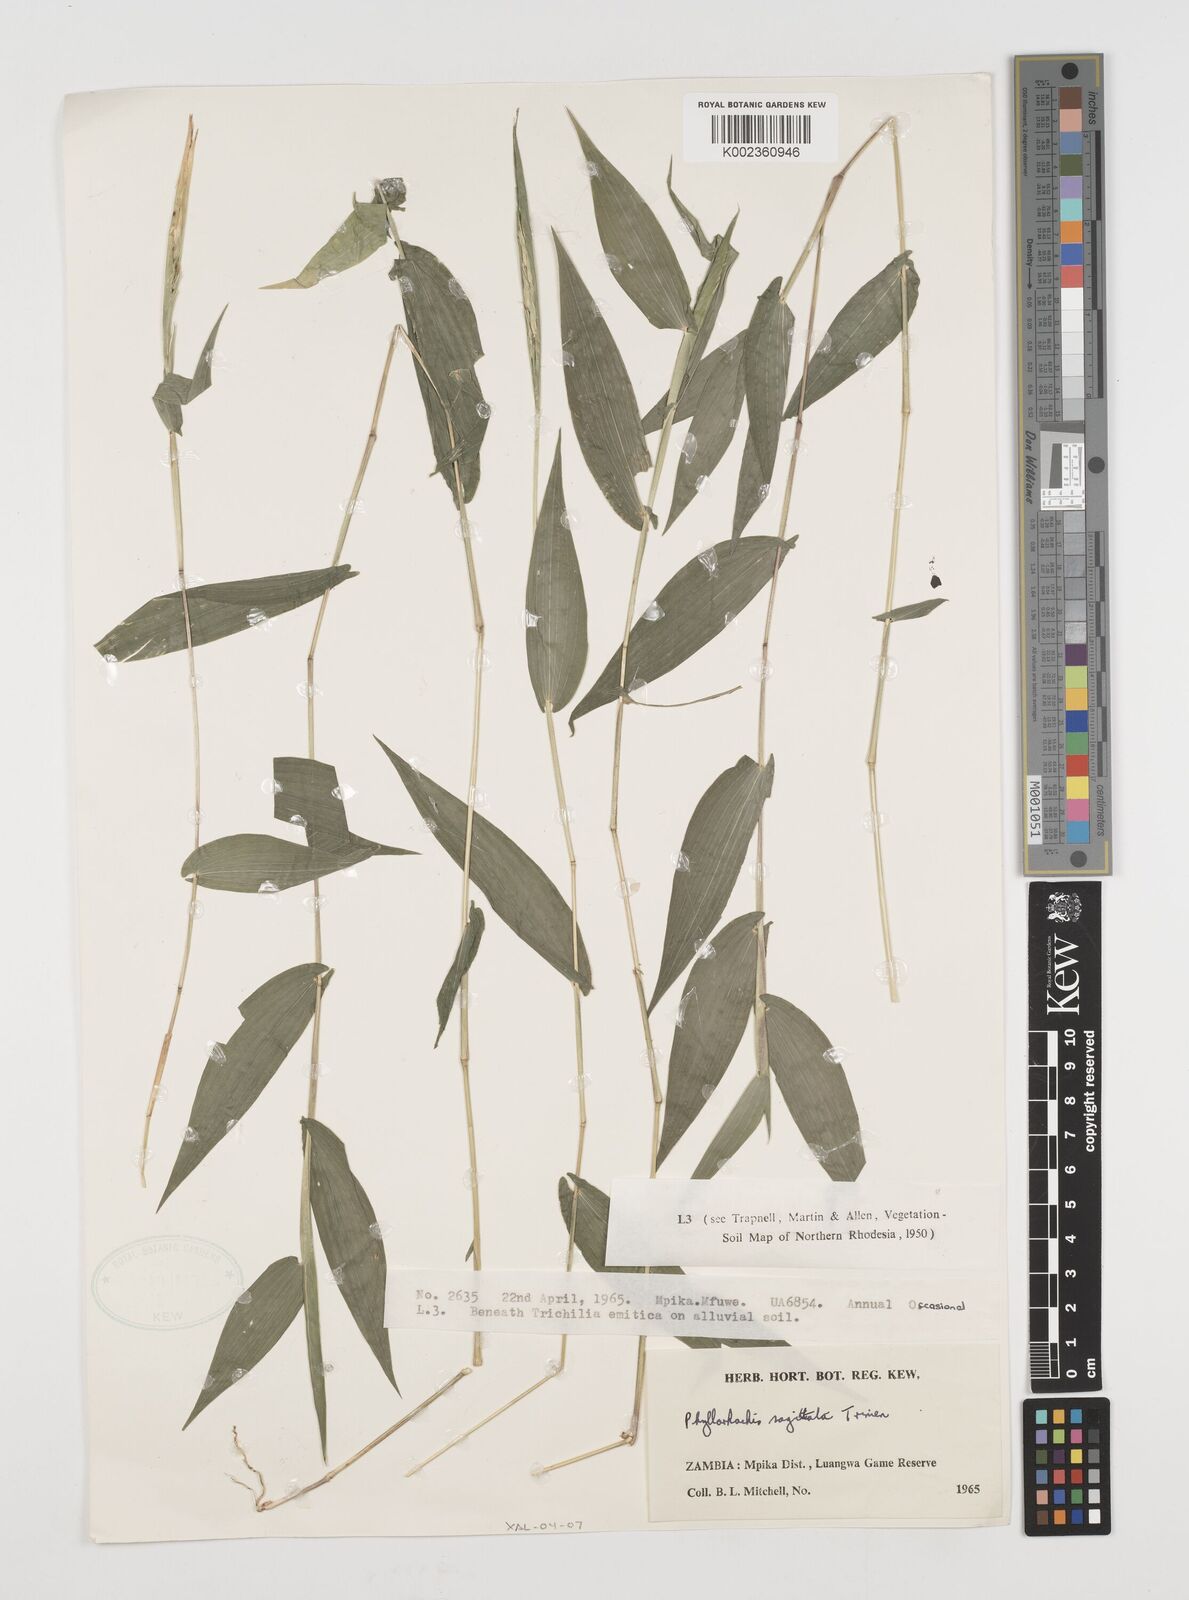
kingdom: Plantae
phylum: Tracheophyta
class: Liliopsida
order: Poales
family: Poaceae
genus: Phyllorachis
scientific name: Phyllorachis sagittata
